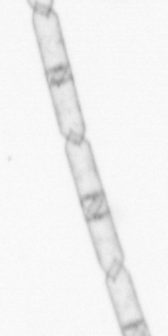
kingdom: Chromista
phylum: Ochrophyta
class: Bacillariophyceae
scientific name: Bacillariophyceae
